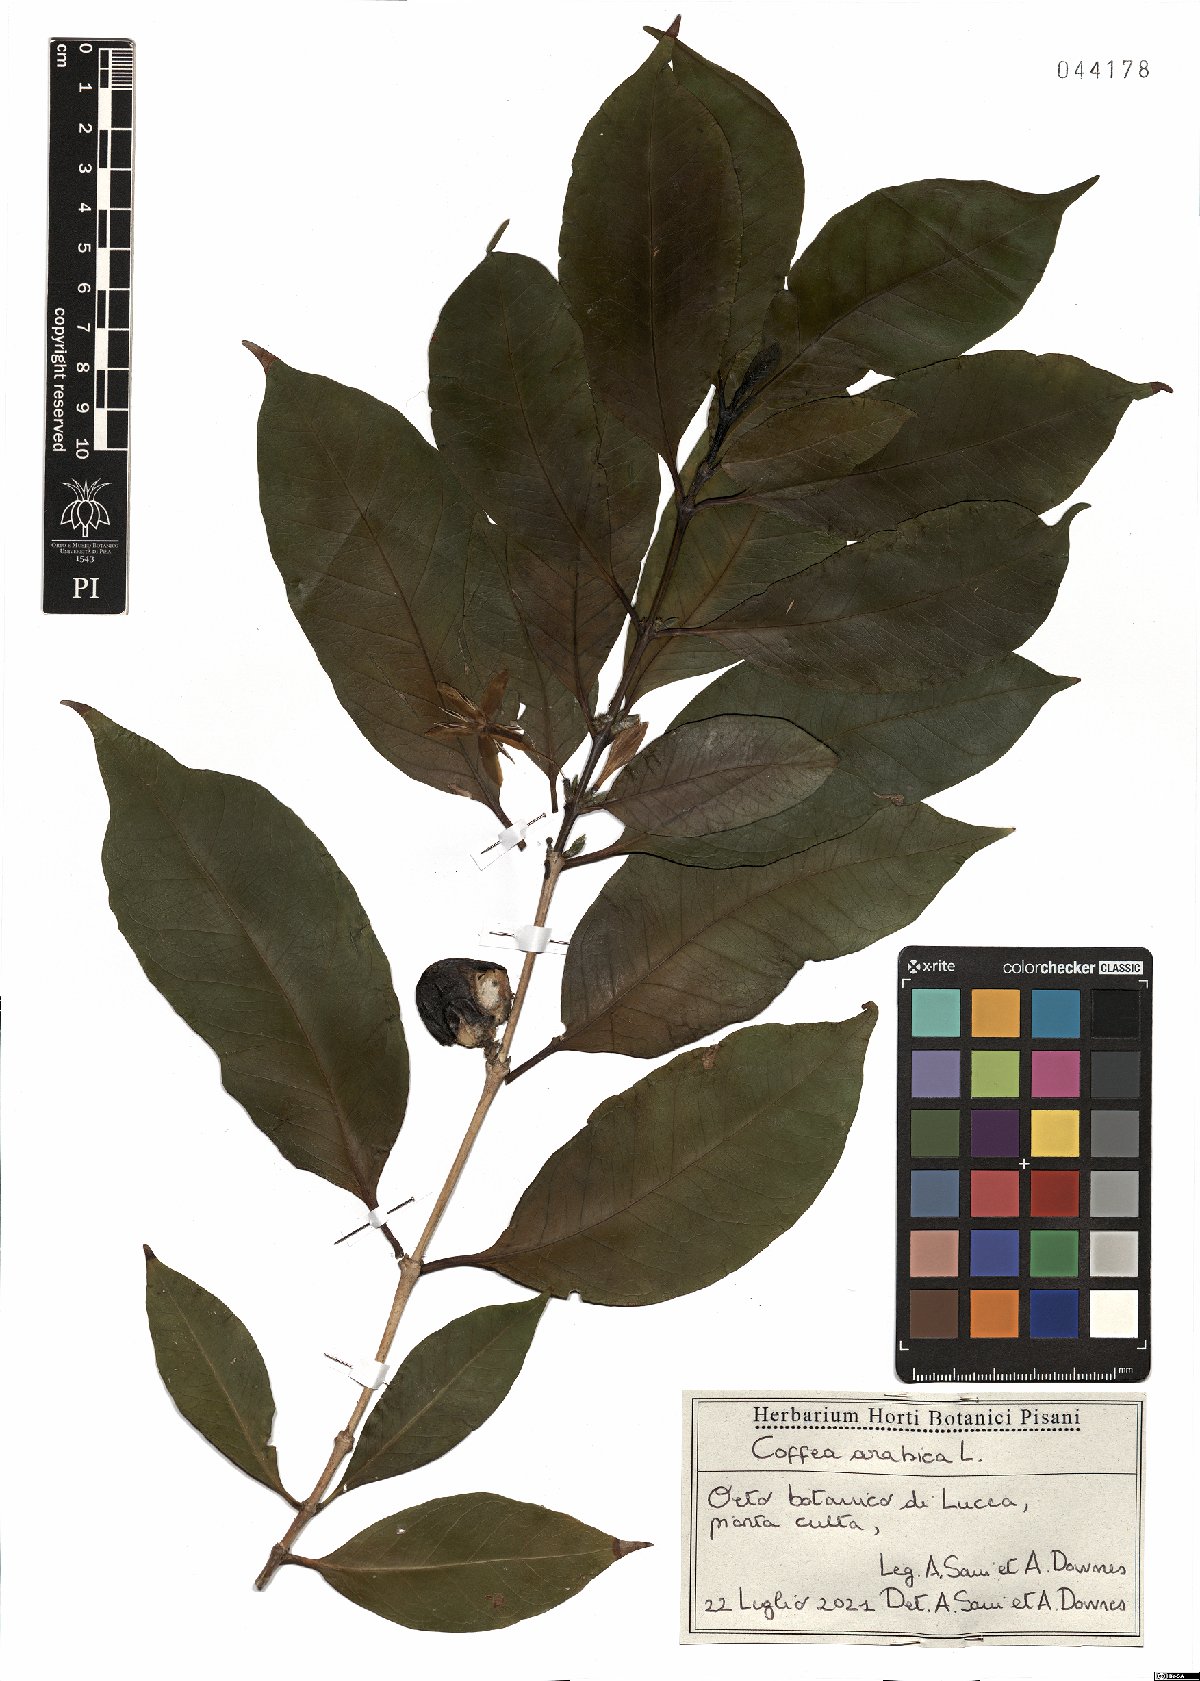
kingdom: Plantae
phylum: Tracheophyta
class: Magnoliopsida
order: Gentianales
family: Rubiaceae
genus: Coffea
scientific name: Coffea arabica
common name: Coffee
